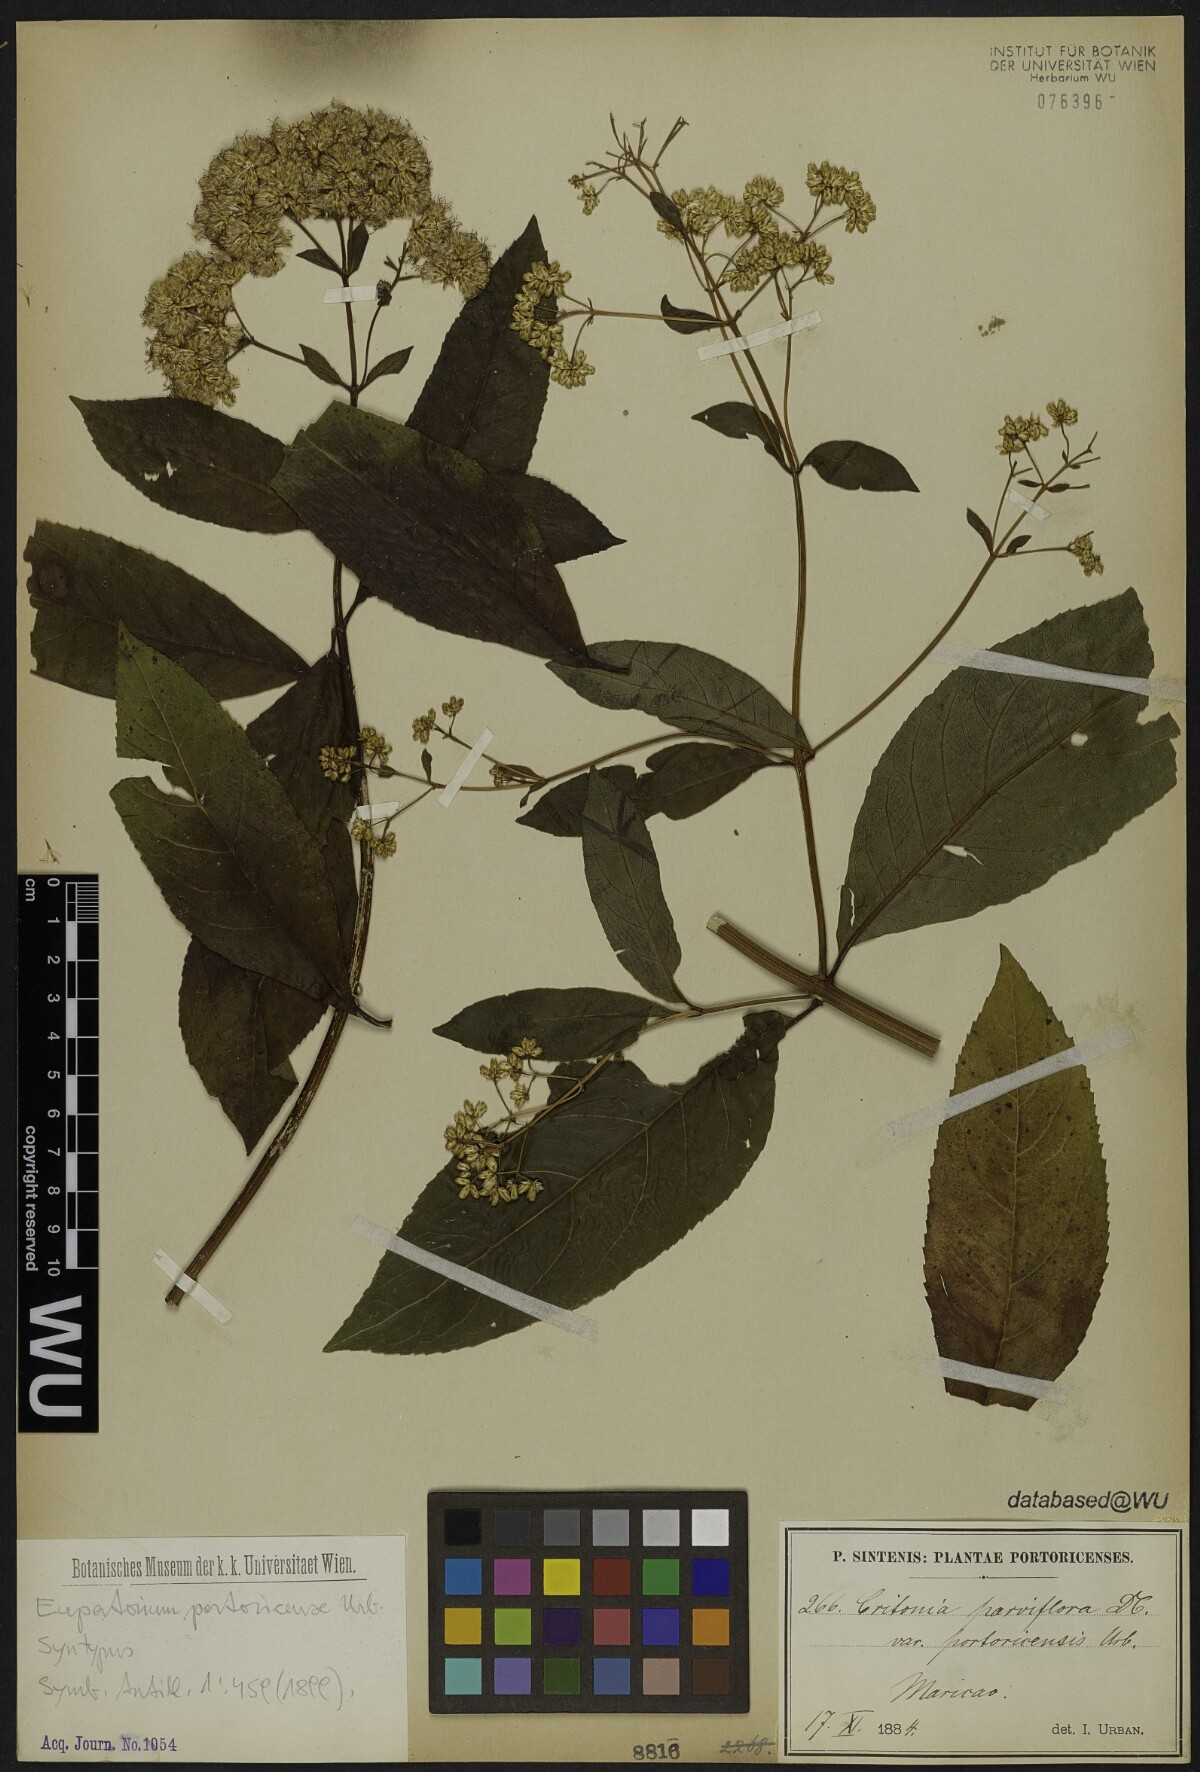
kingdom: Plantae
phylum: Tracheophyta
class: Magnoliopsida
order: Asterales
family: Asteraceae
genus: Critonia
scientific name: Critonia portoricensis
